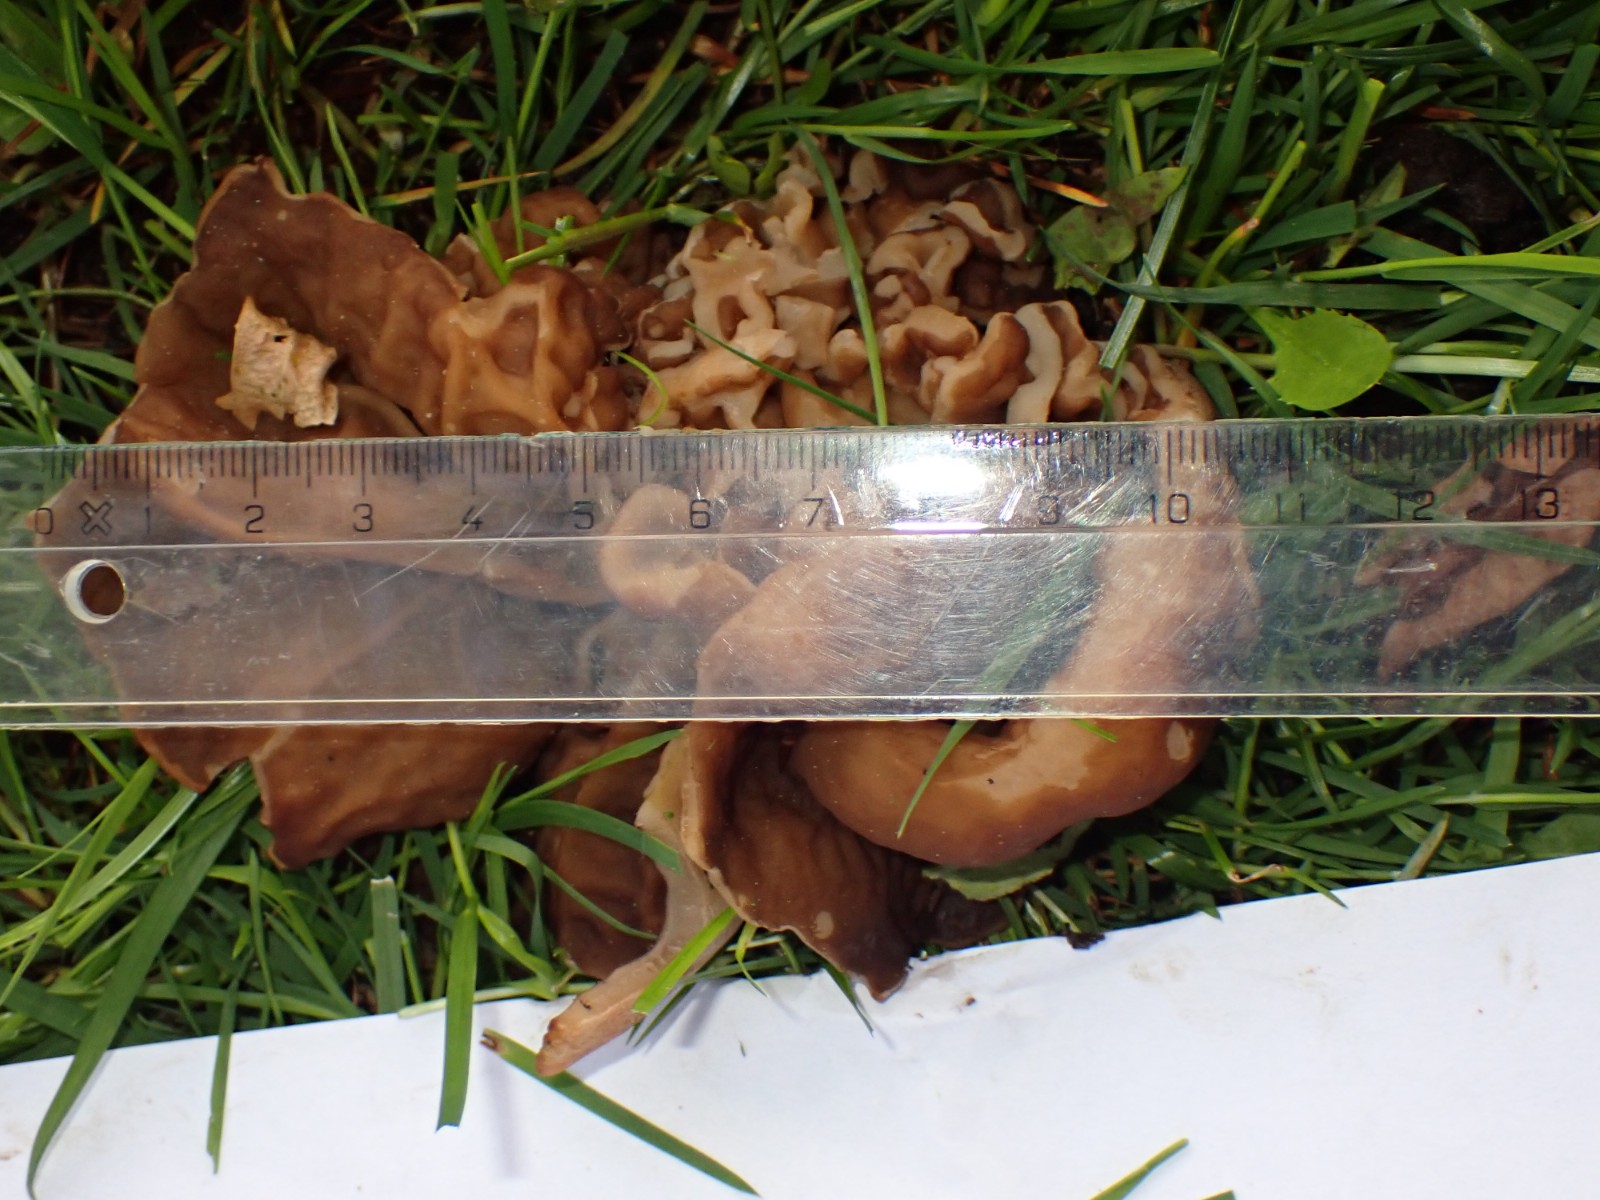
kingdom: Fungi
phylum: Ascomycota
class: Pezizomycetes
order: Pezizales
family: Morchellaceae
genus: Disciotis
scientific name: Disciotis venosa
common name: klor-bægermorkel
